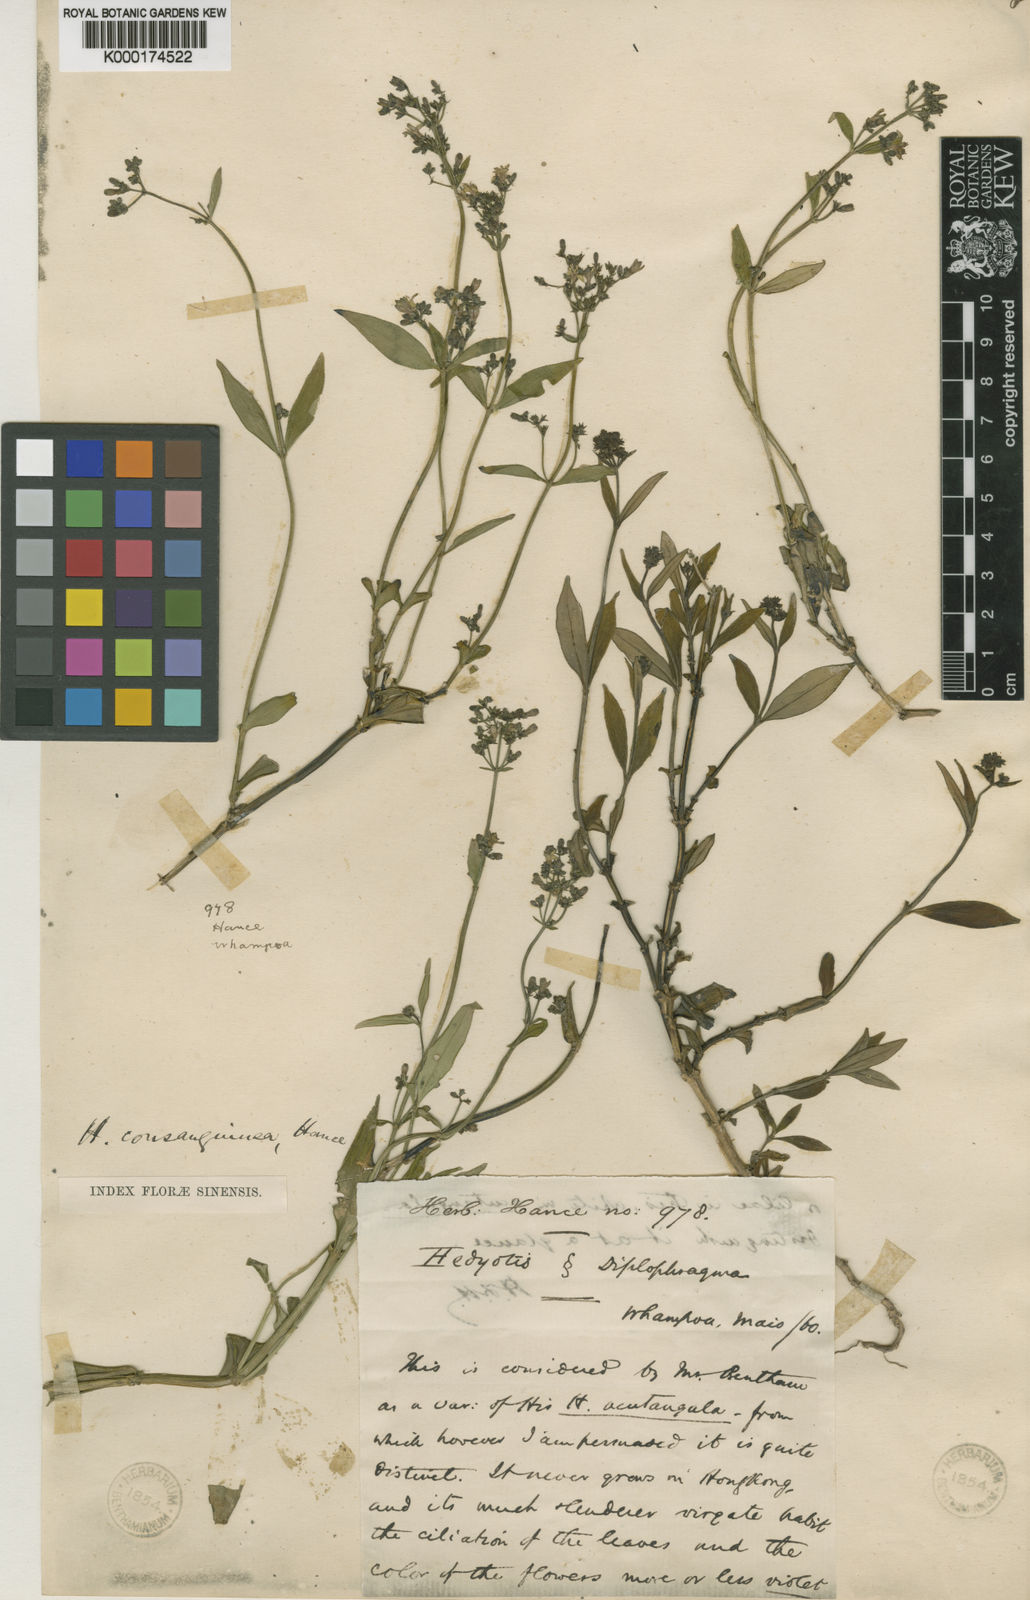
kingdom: Plantae
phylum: Tracheophyta
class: Magnoliopsida
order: Gentianales
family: Rubiaceae
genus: Hedyotis
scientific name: Hedyotis lancea
